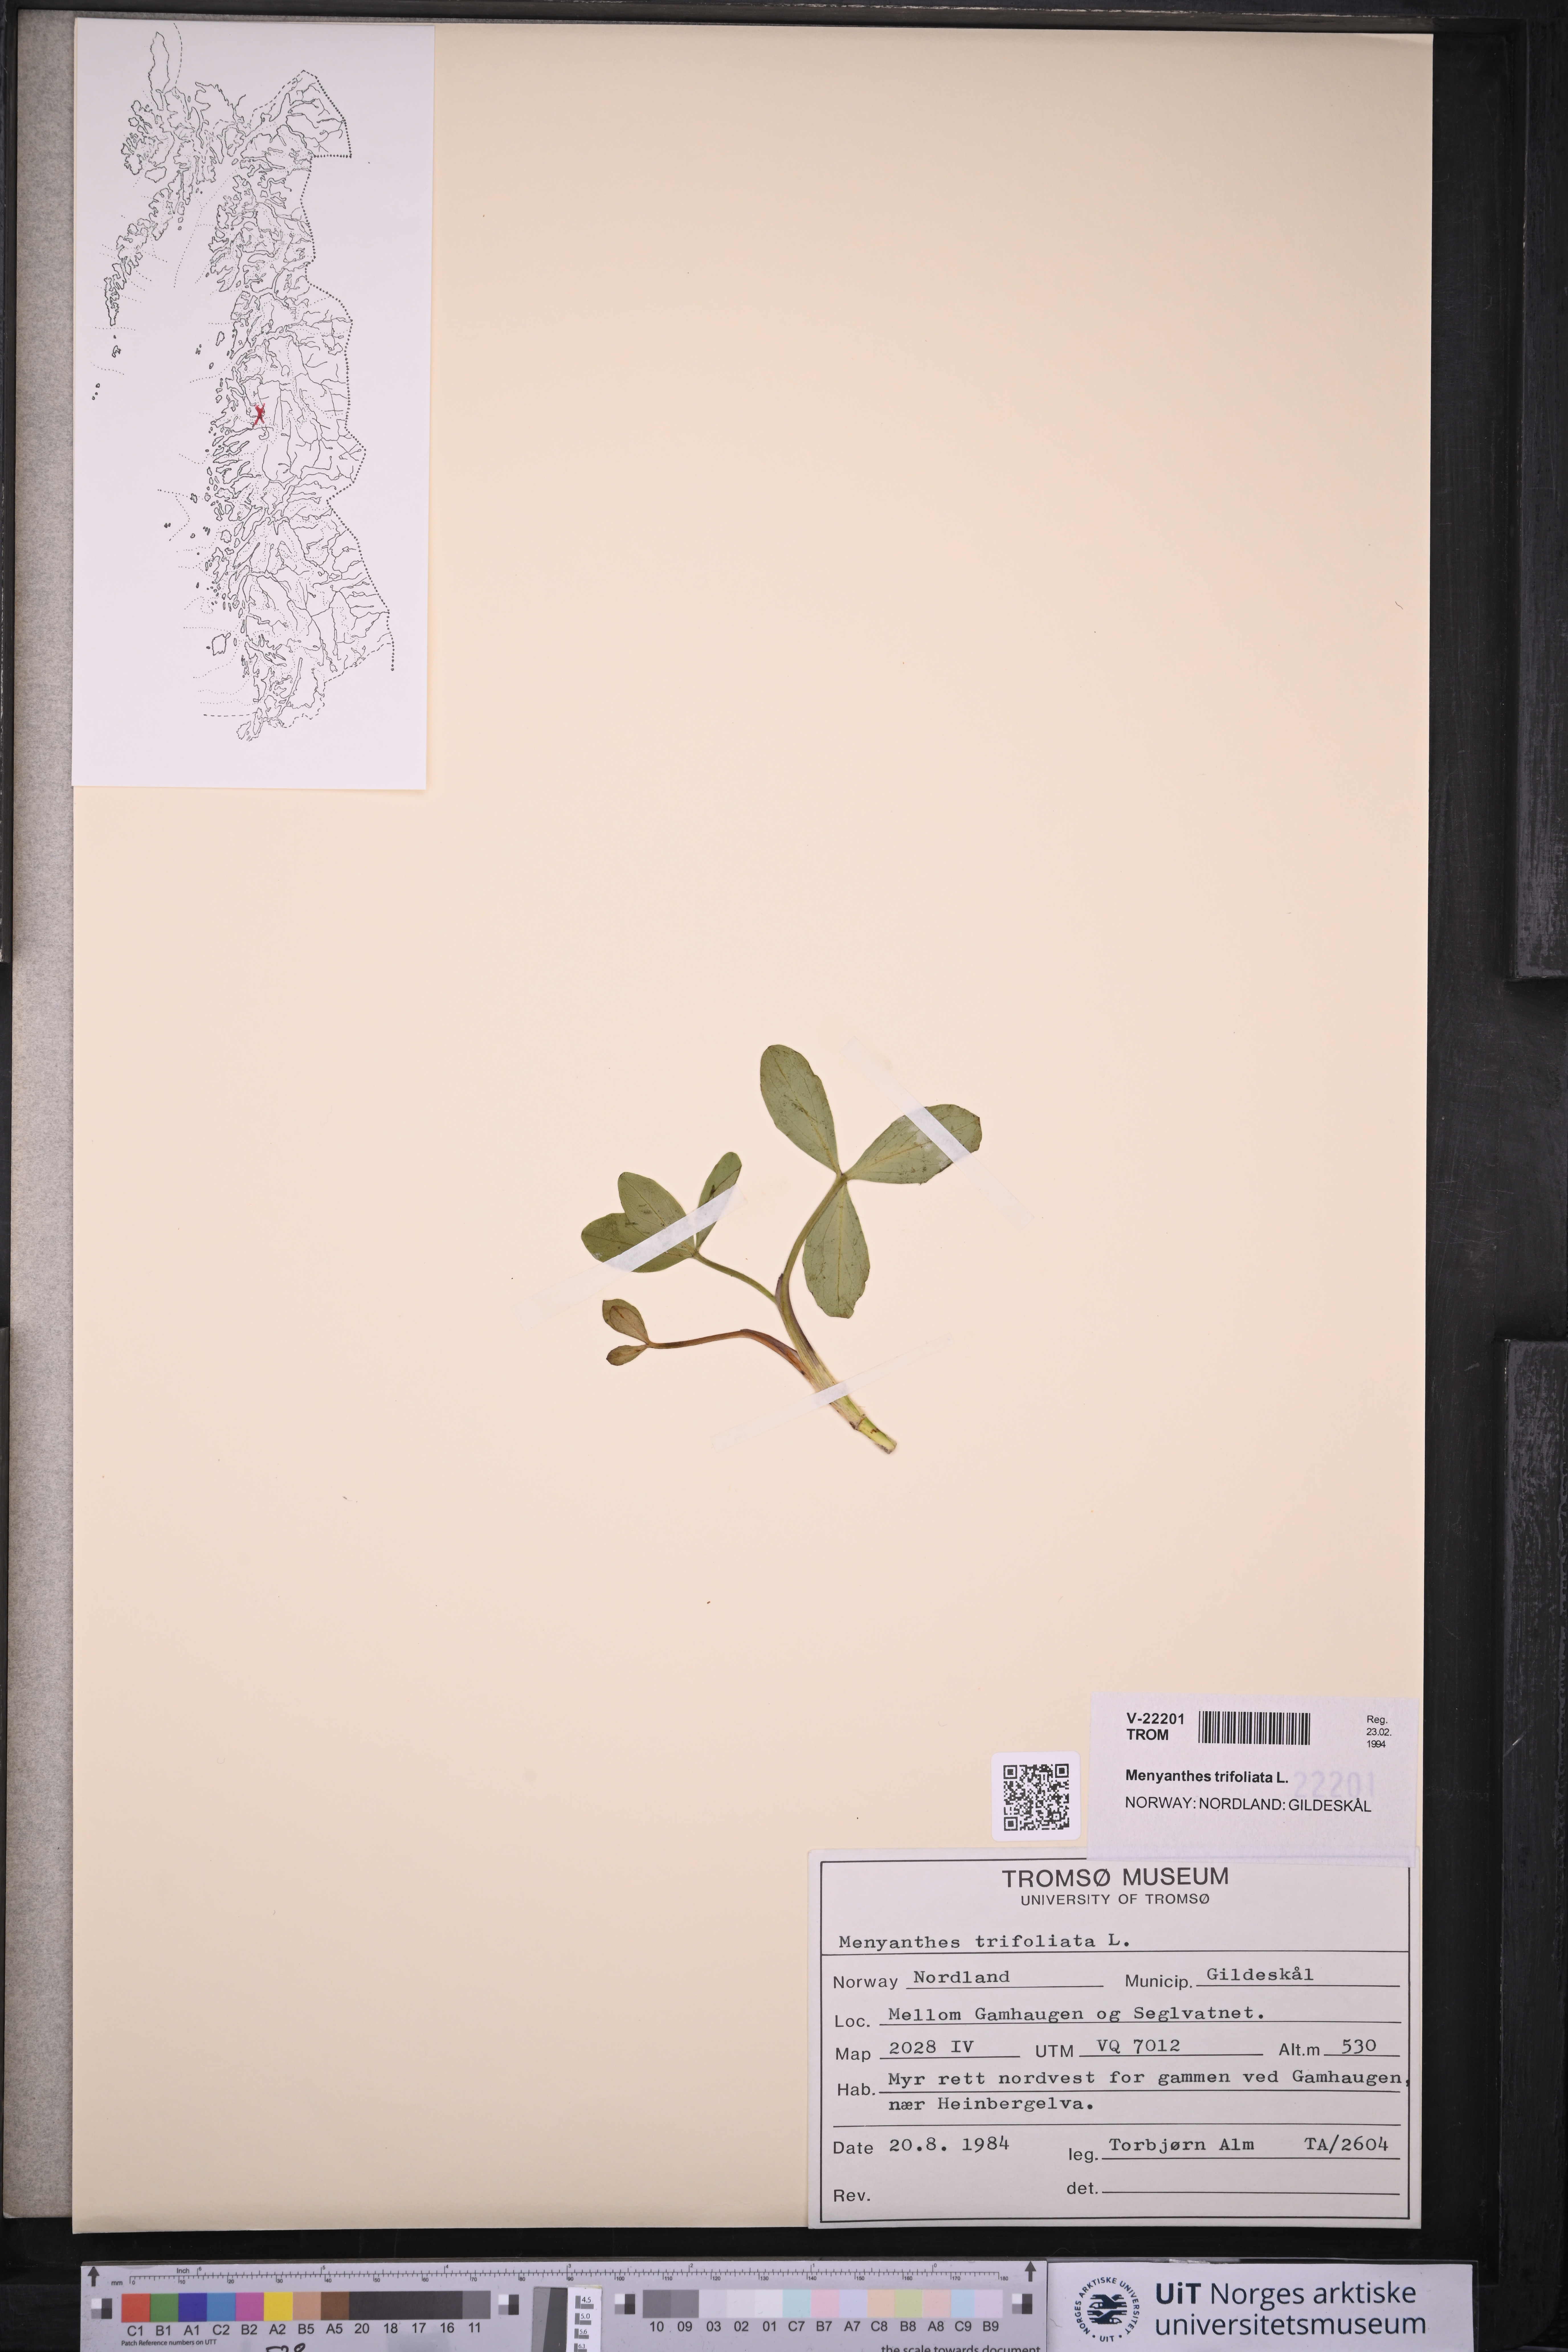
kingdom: Plantae
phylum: Tracheophyta
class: Magnoliopsida
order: Asterales
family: Menyanthaceae
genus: Menyanthes
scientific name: Menyanthes trifoliata
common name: Bogbean
